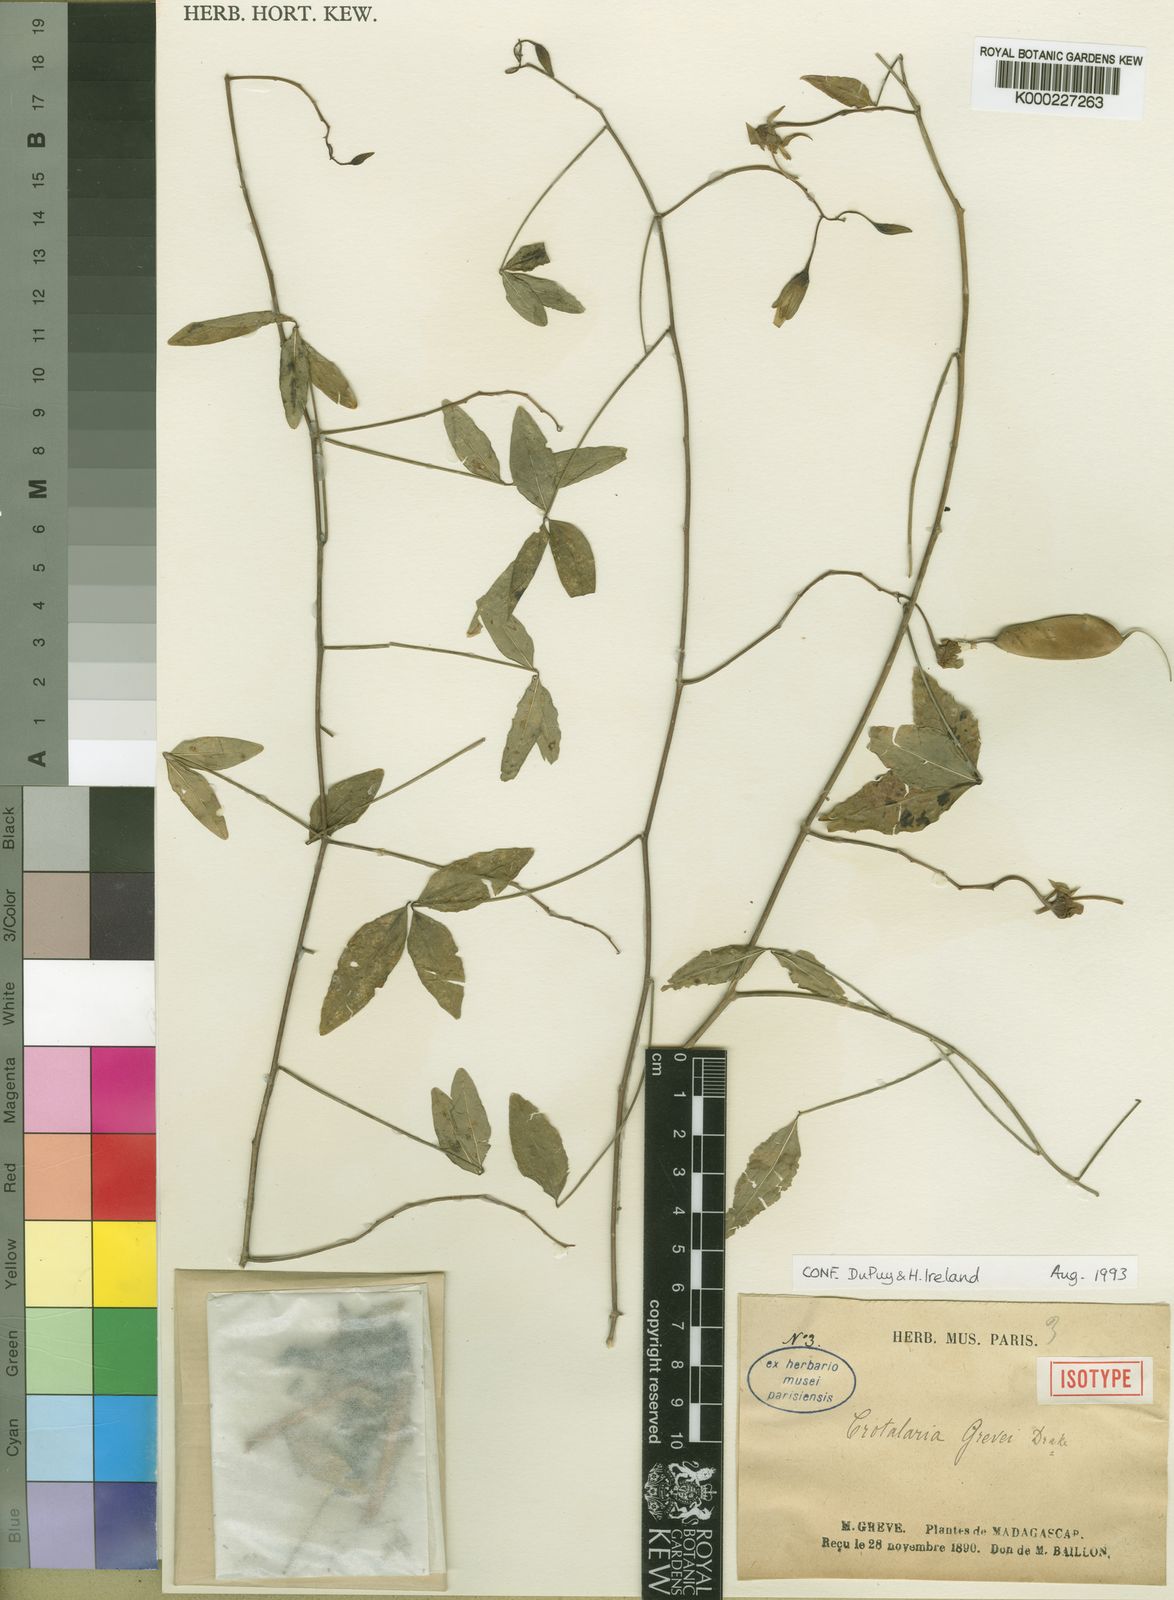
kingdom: Plantae
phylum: Tracheophyta
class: Magnoliopsida
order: Fabales
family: Fabaceae
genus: Crotalaria
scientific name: Crotalaria grevei
